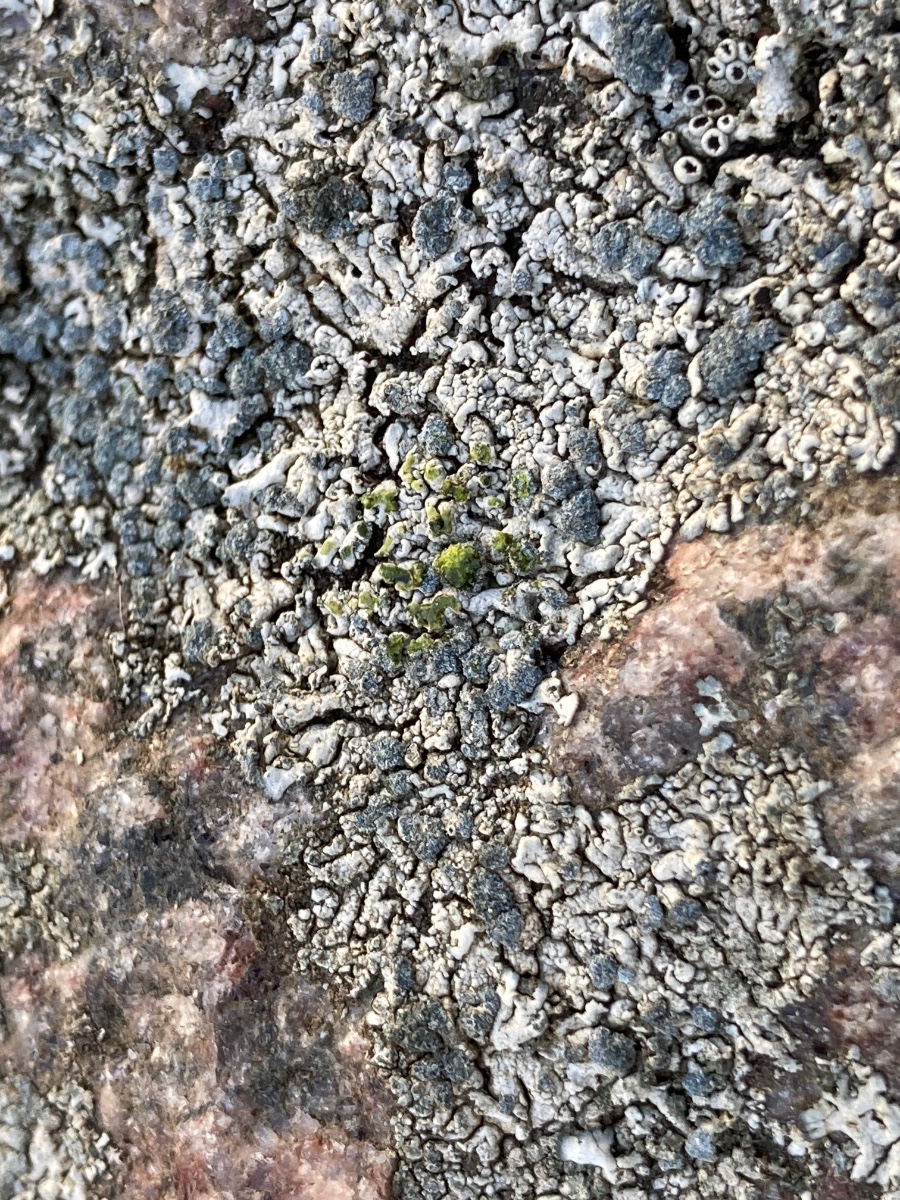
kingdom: Fungi
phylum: Ascomycota
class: Lecanoromycetes
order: Caliciales
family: Physciaceae
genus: Physcia
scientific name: Physcia caesia
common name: blågrå rosetlav
